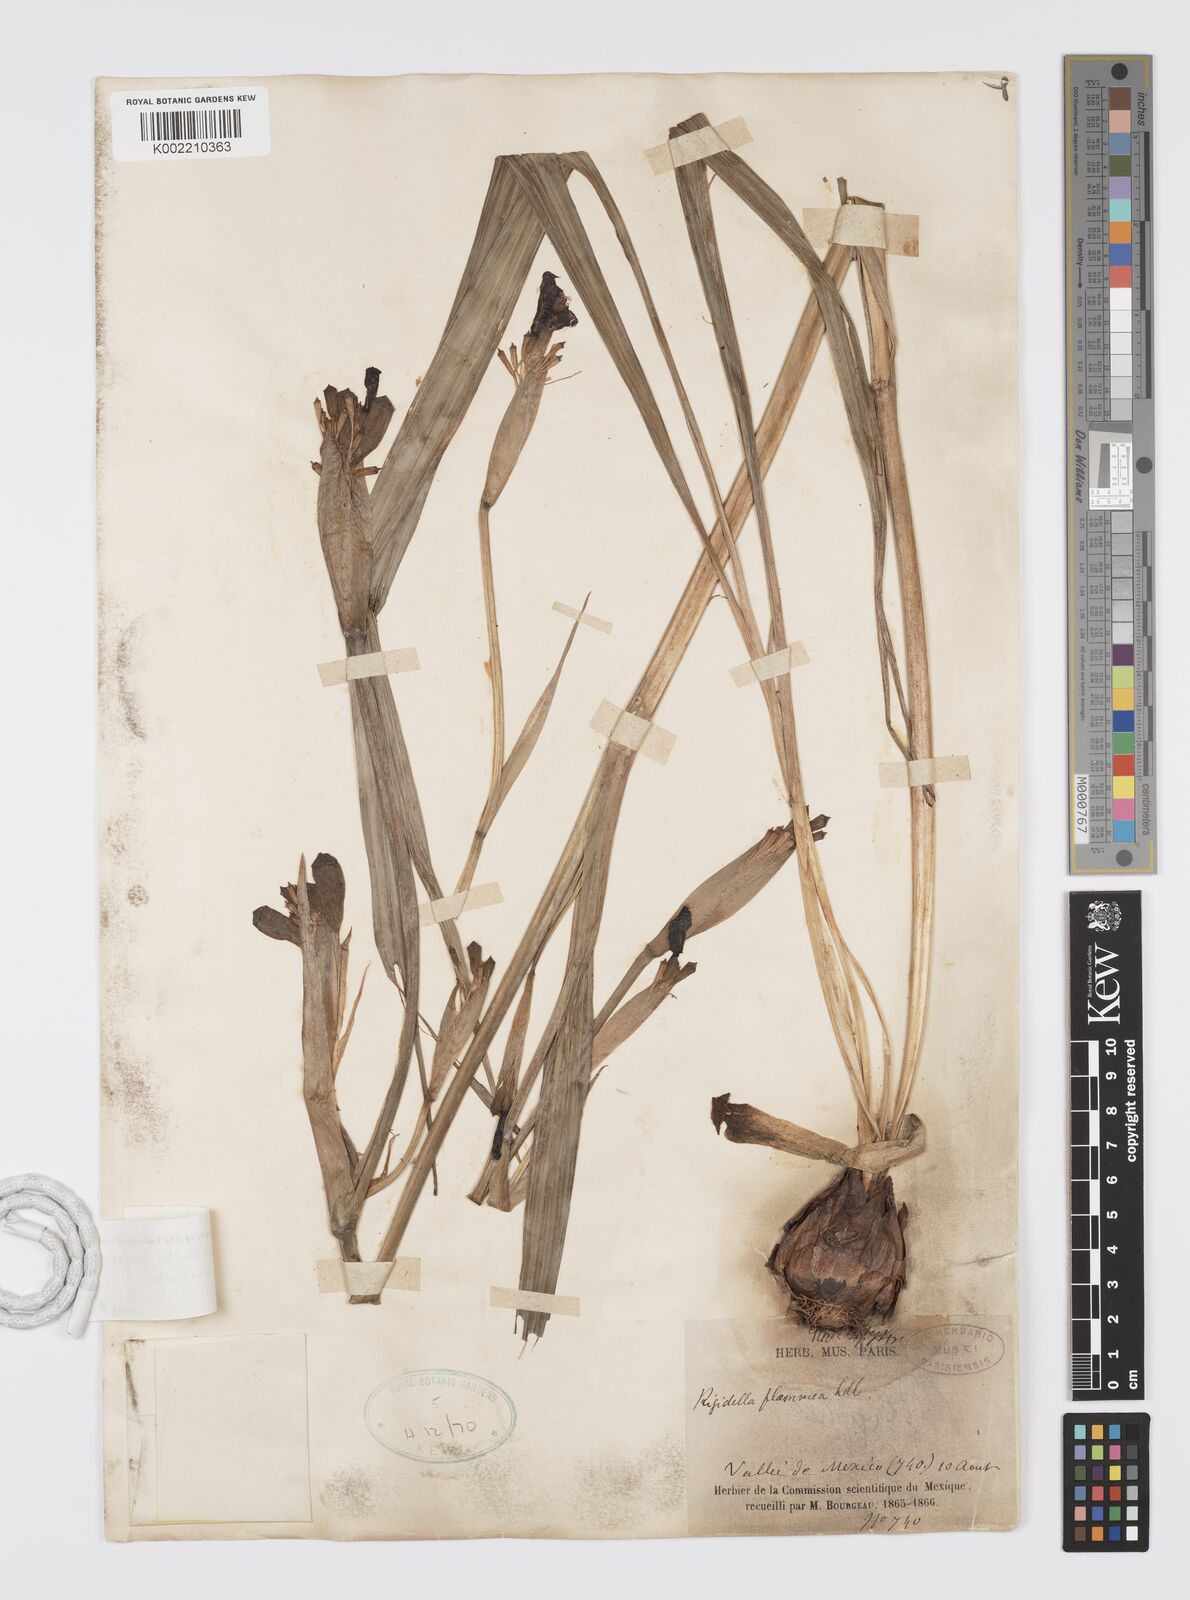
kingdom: Plantae
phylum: Tracheophyta
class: Liliopsida
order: Asparagales
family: Iridaceae
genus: Tigridia
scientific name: Tigridia vanhouttei
